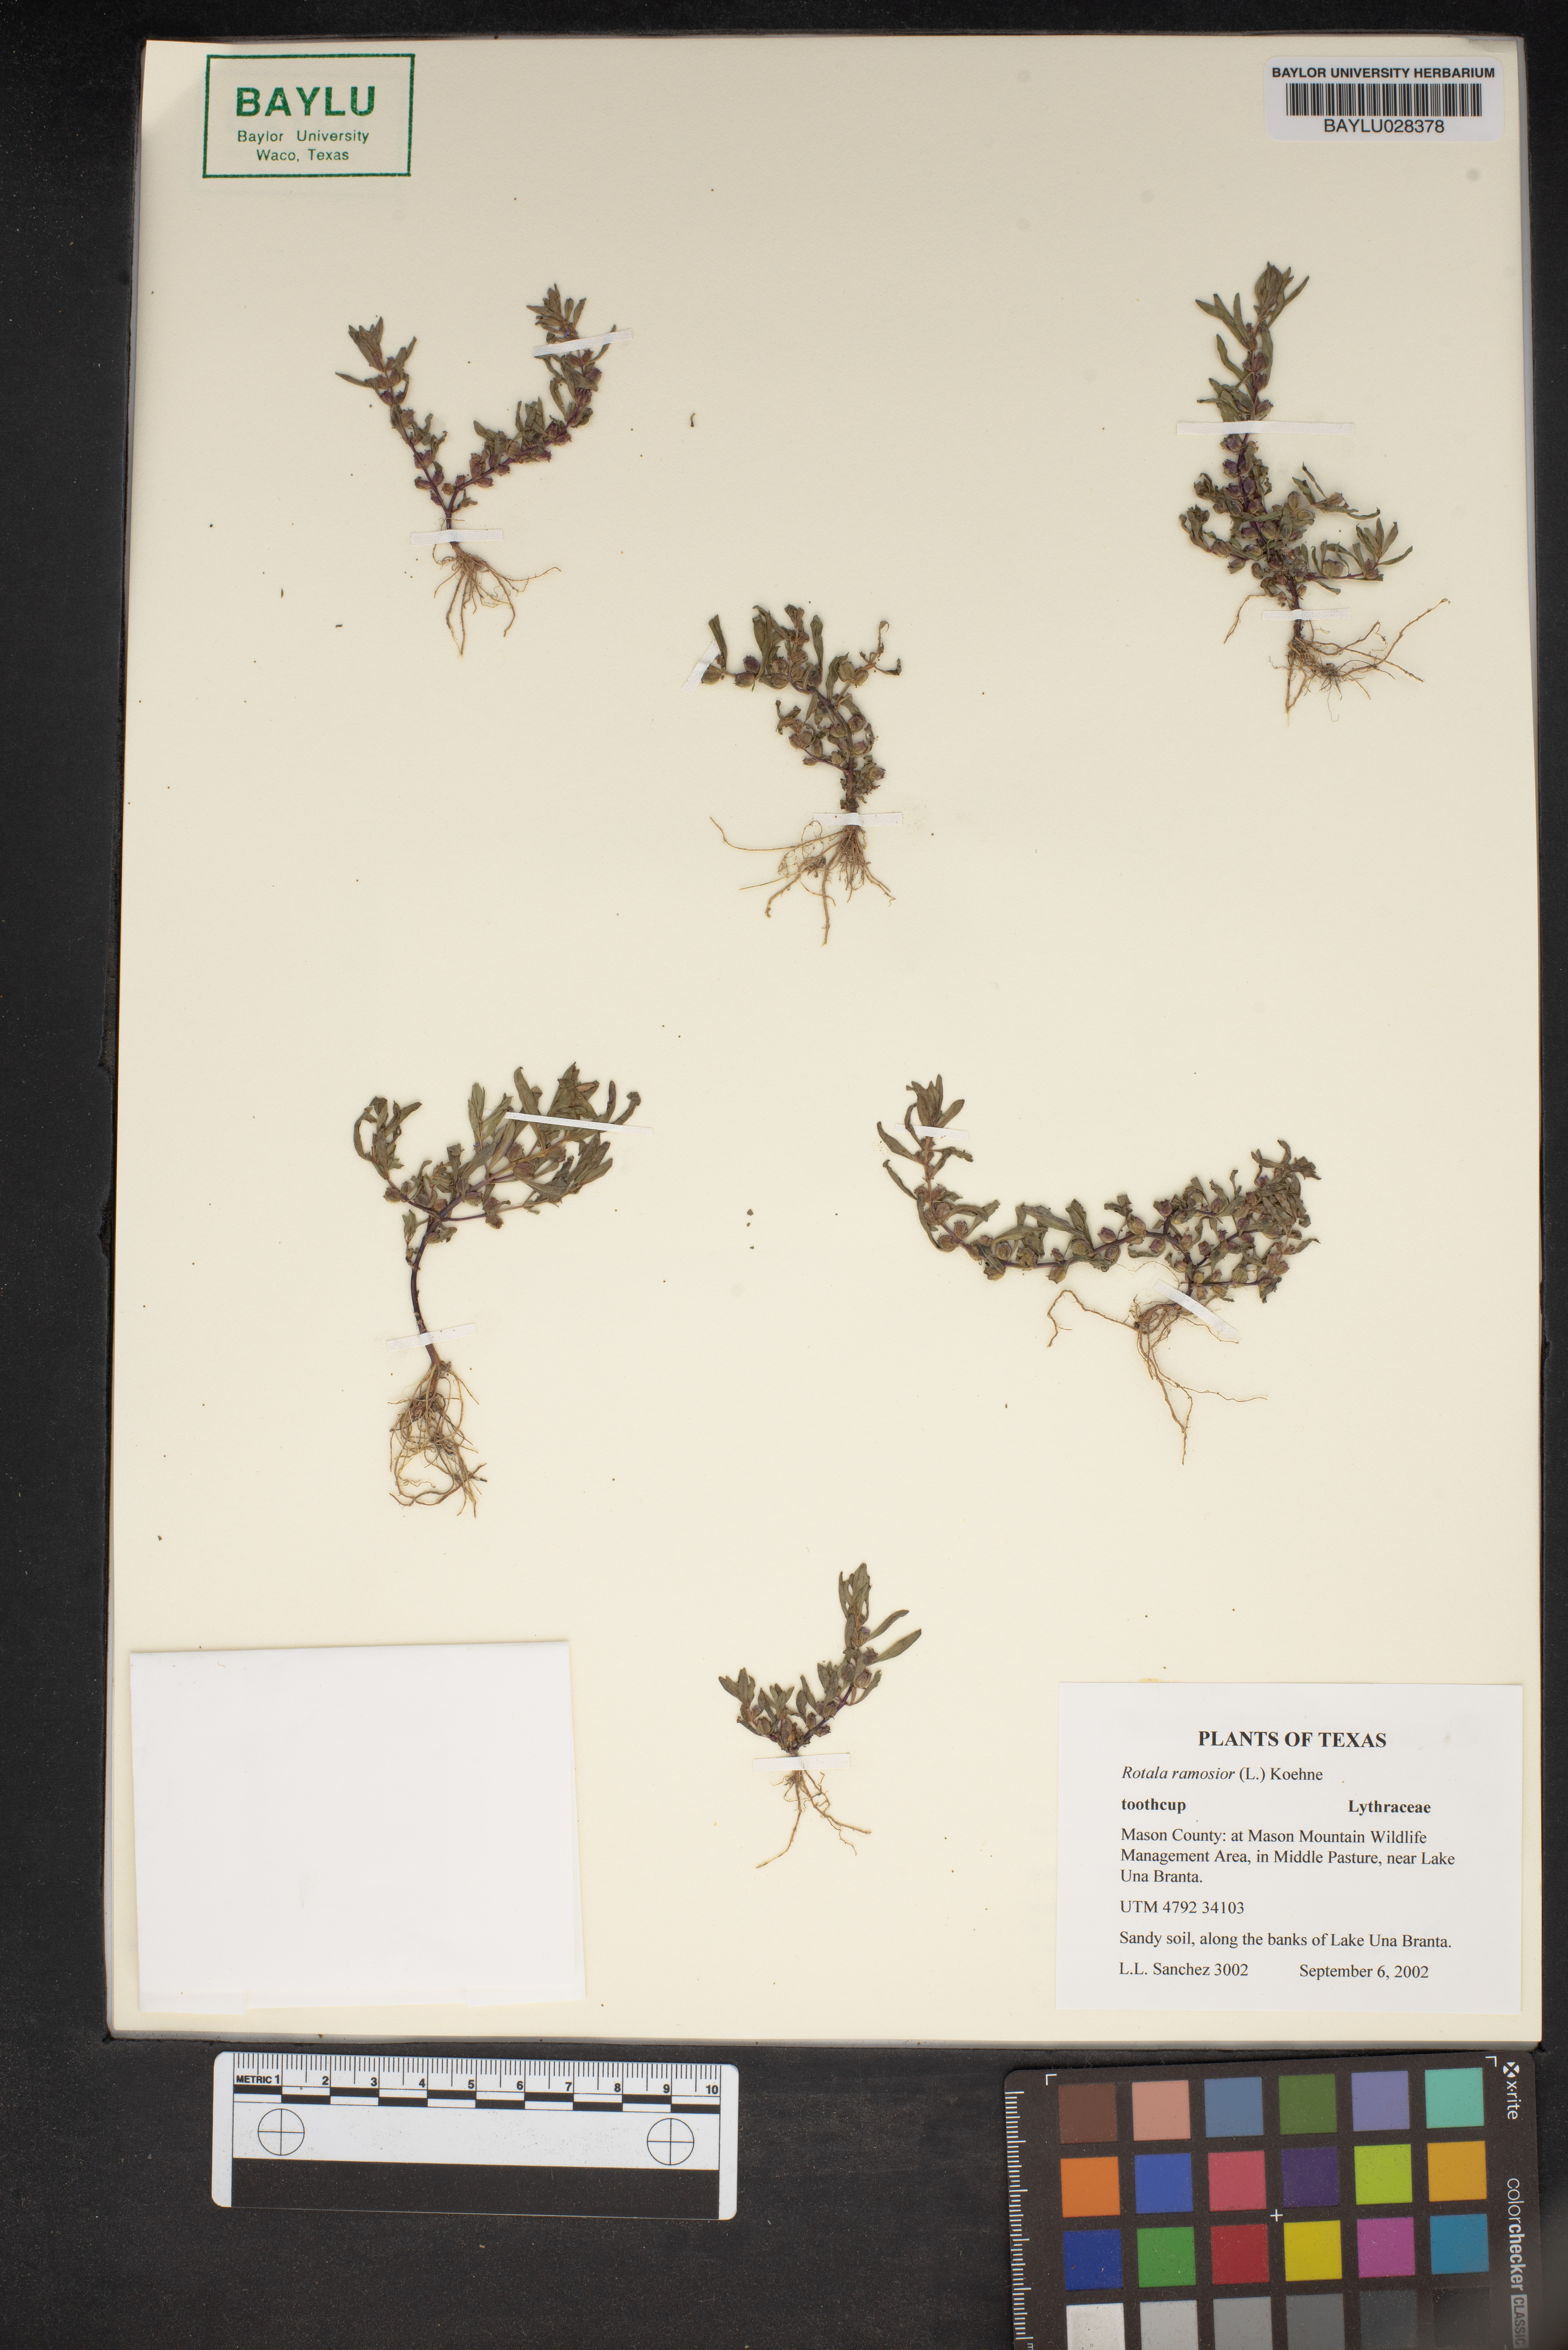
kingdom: Plantae
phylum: Tracheophyta
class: Magnoliopsida
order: Myrtales
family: Lythraceae
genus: Rotala
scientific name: Rotala ramosior
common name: Lowland rotala
